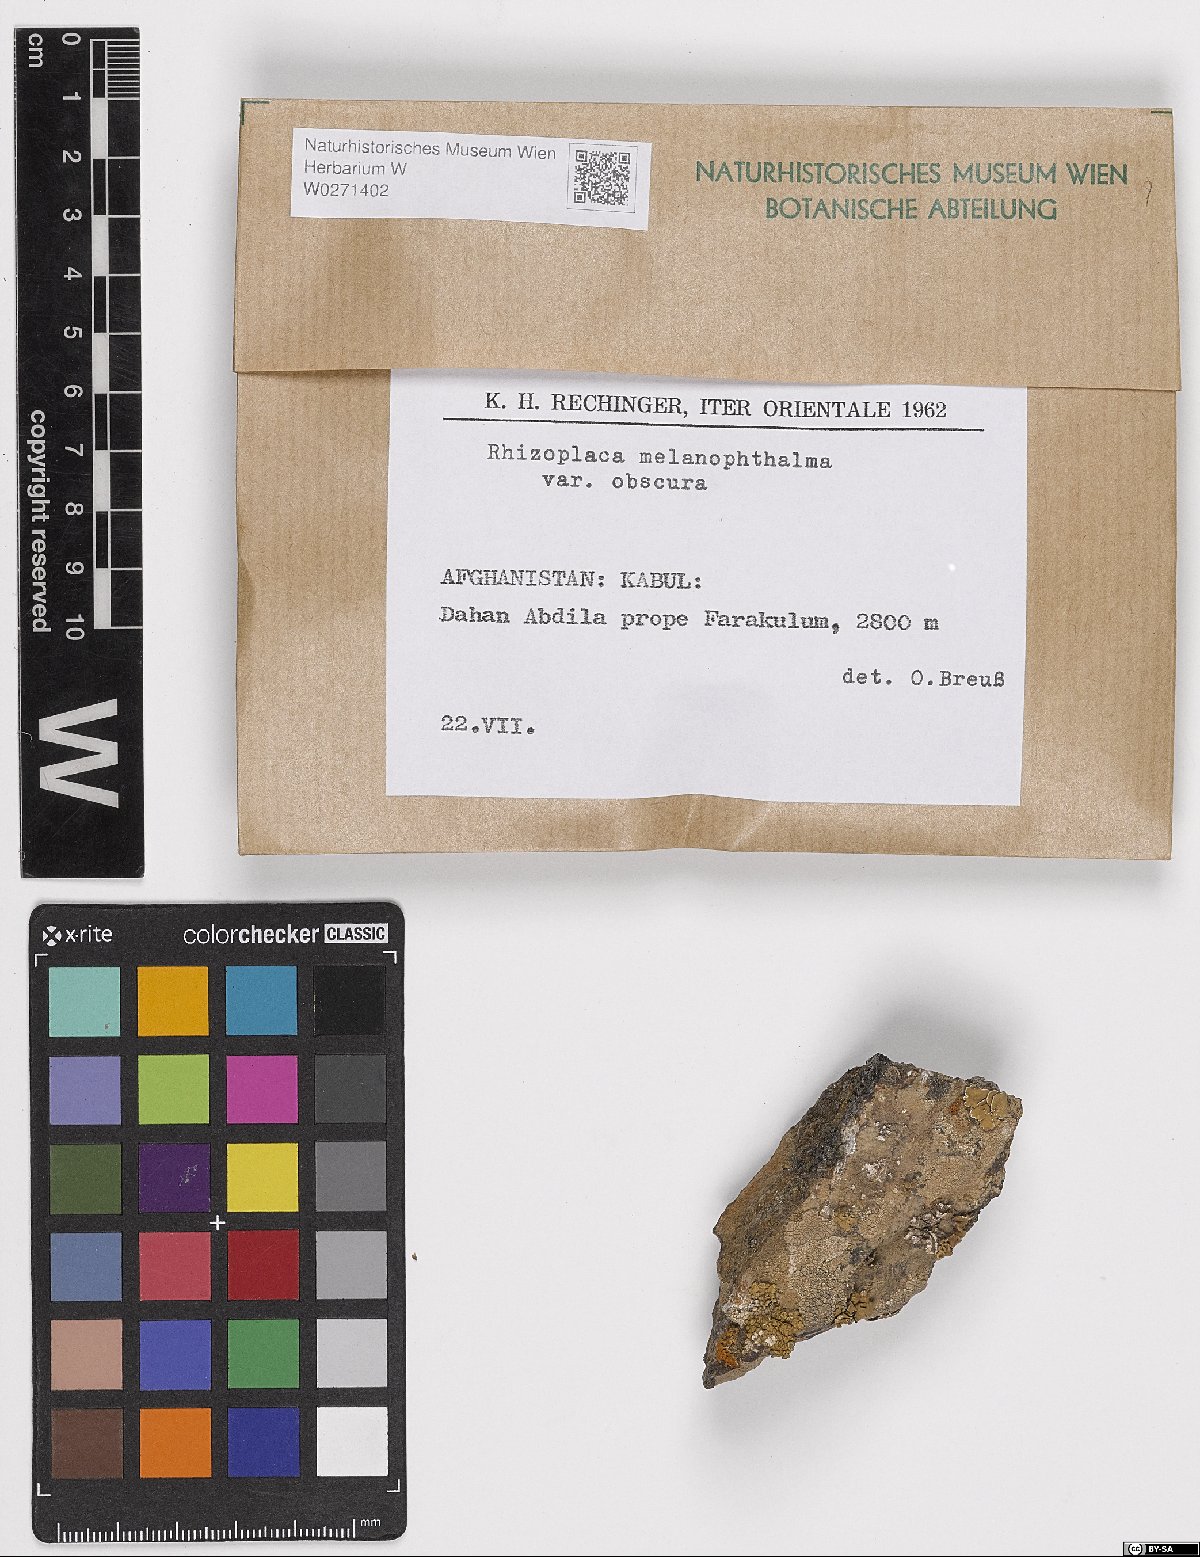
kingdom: Fungi
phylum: Ascomycota
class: Lecanoromycetes
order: Lecanorales
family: Lecanoraceae
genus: Rhizoplaca
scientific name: Rhizoplaca melanophthalma
